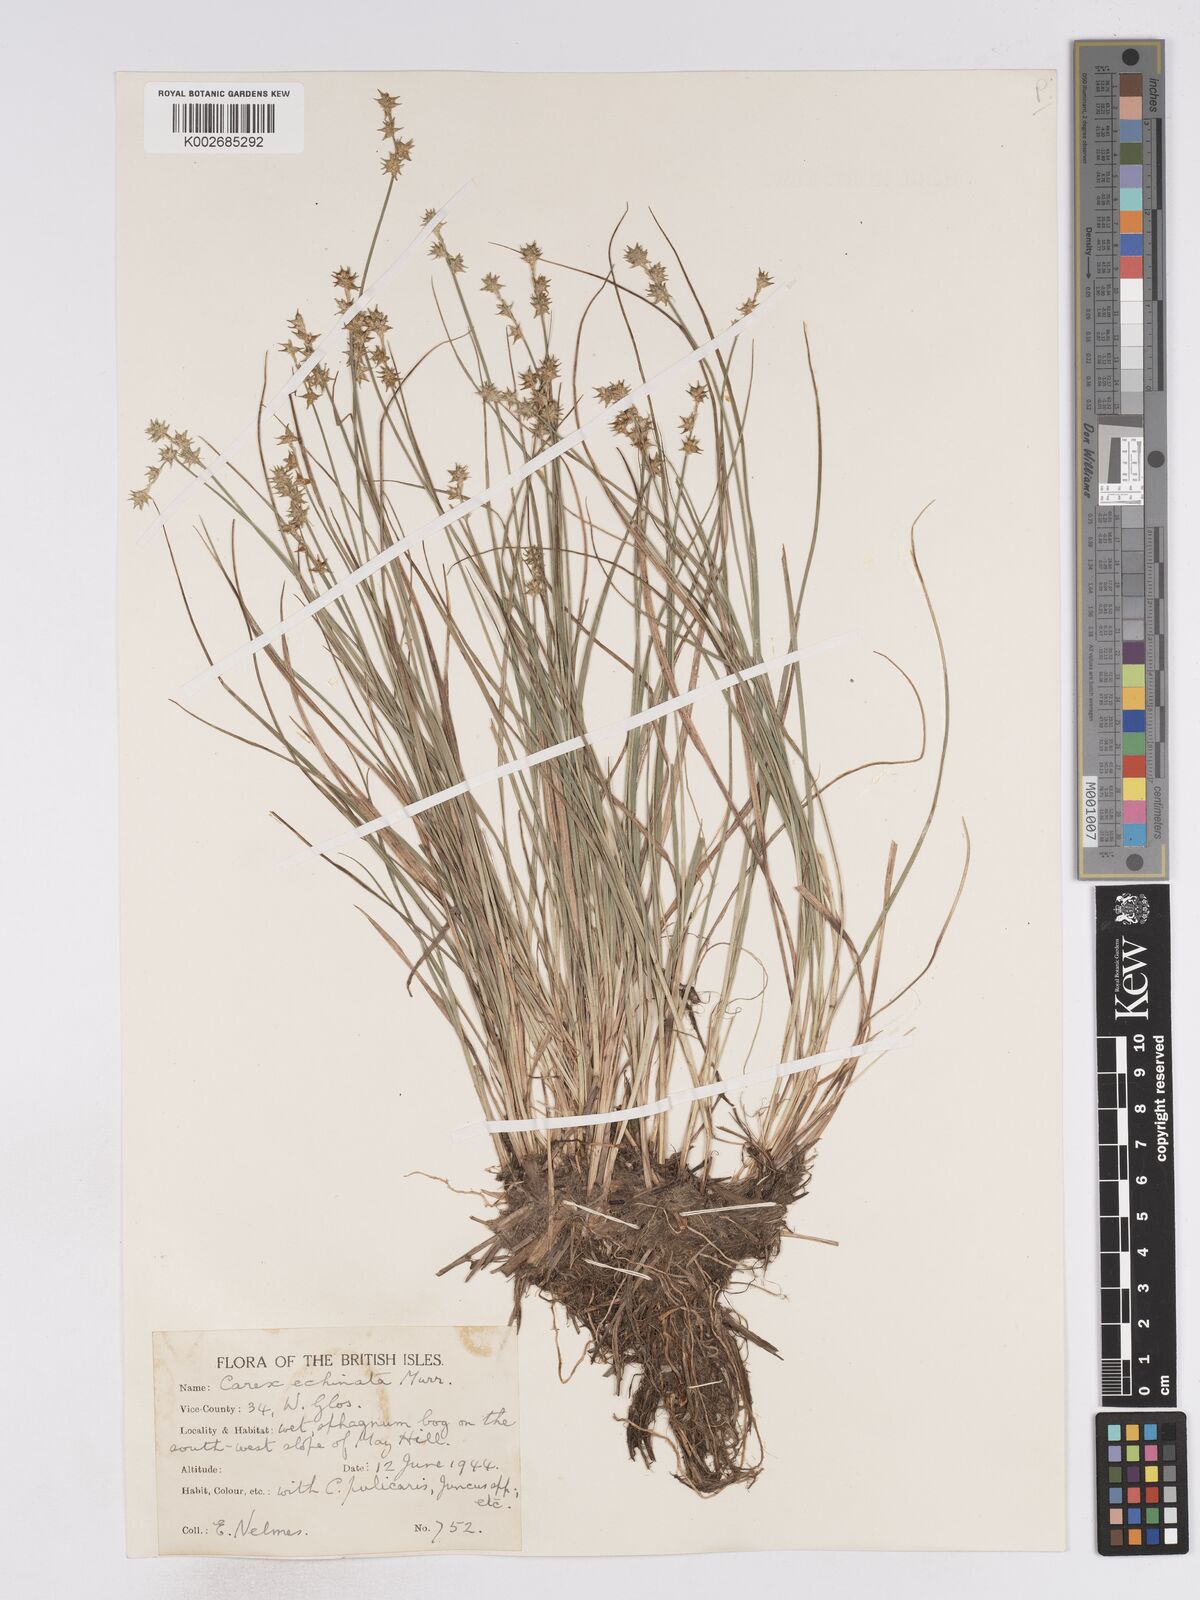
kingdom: Plantae
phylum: Tracheophyta
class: Liliopsida
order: Poales
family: Cyperaceae
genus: Carex
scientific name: Carex echinata
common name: Star sedge
